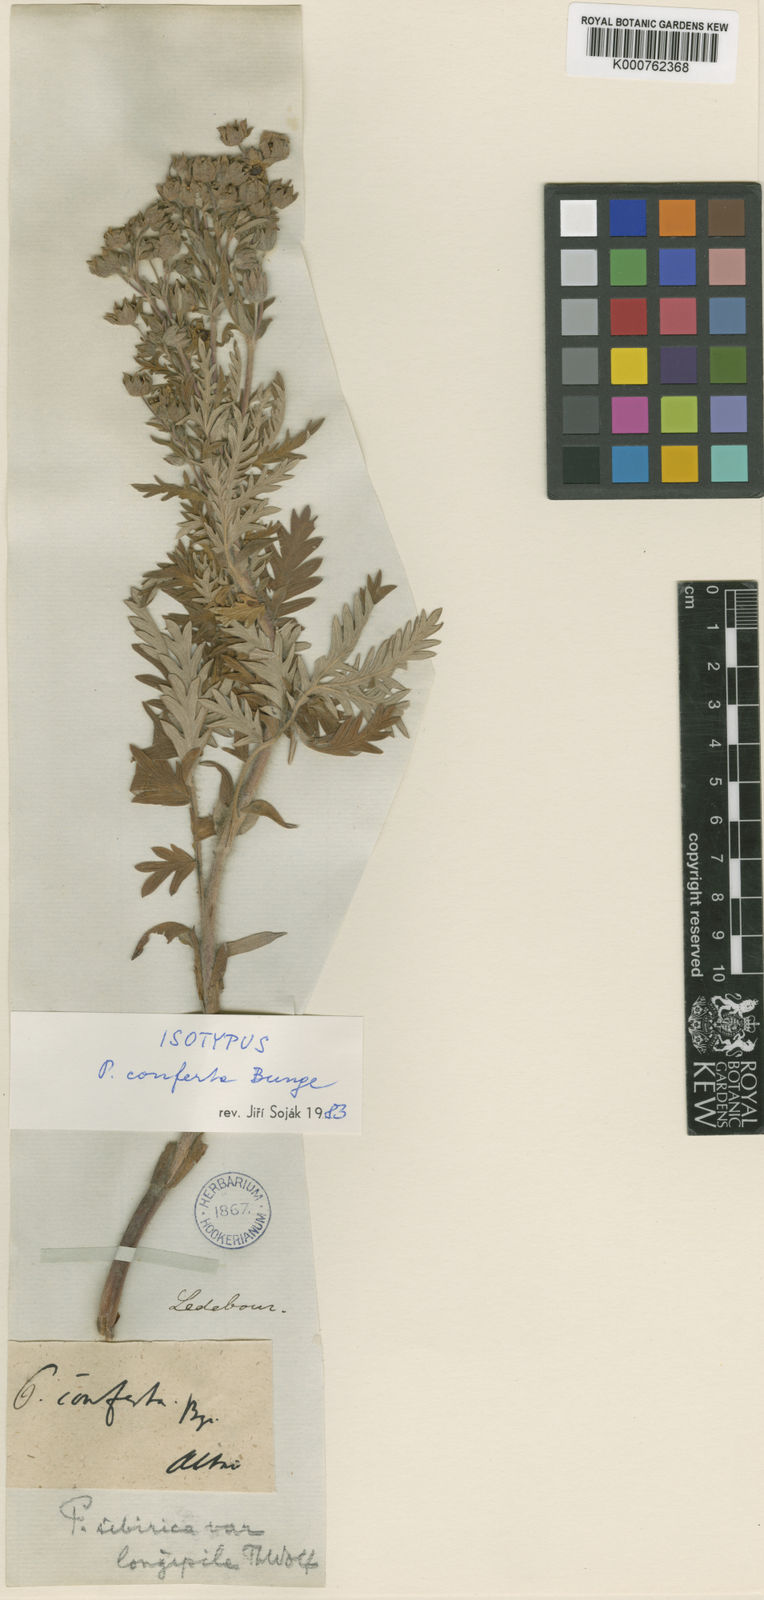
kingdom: Plantae
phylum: Tracheophyta
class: Magnoliopsida
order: Rosales
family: Rosaceae
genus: Potentilla
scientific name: Potentilla
